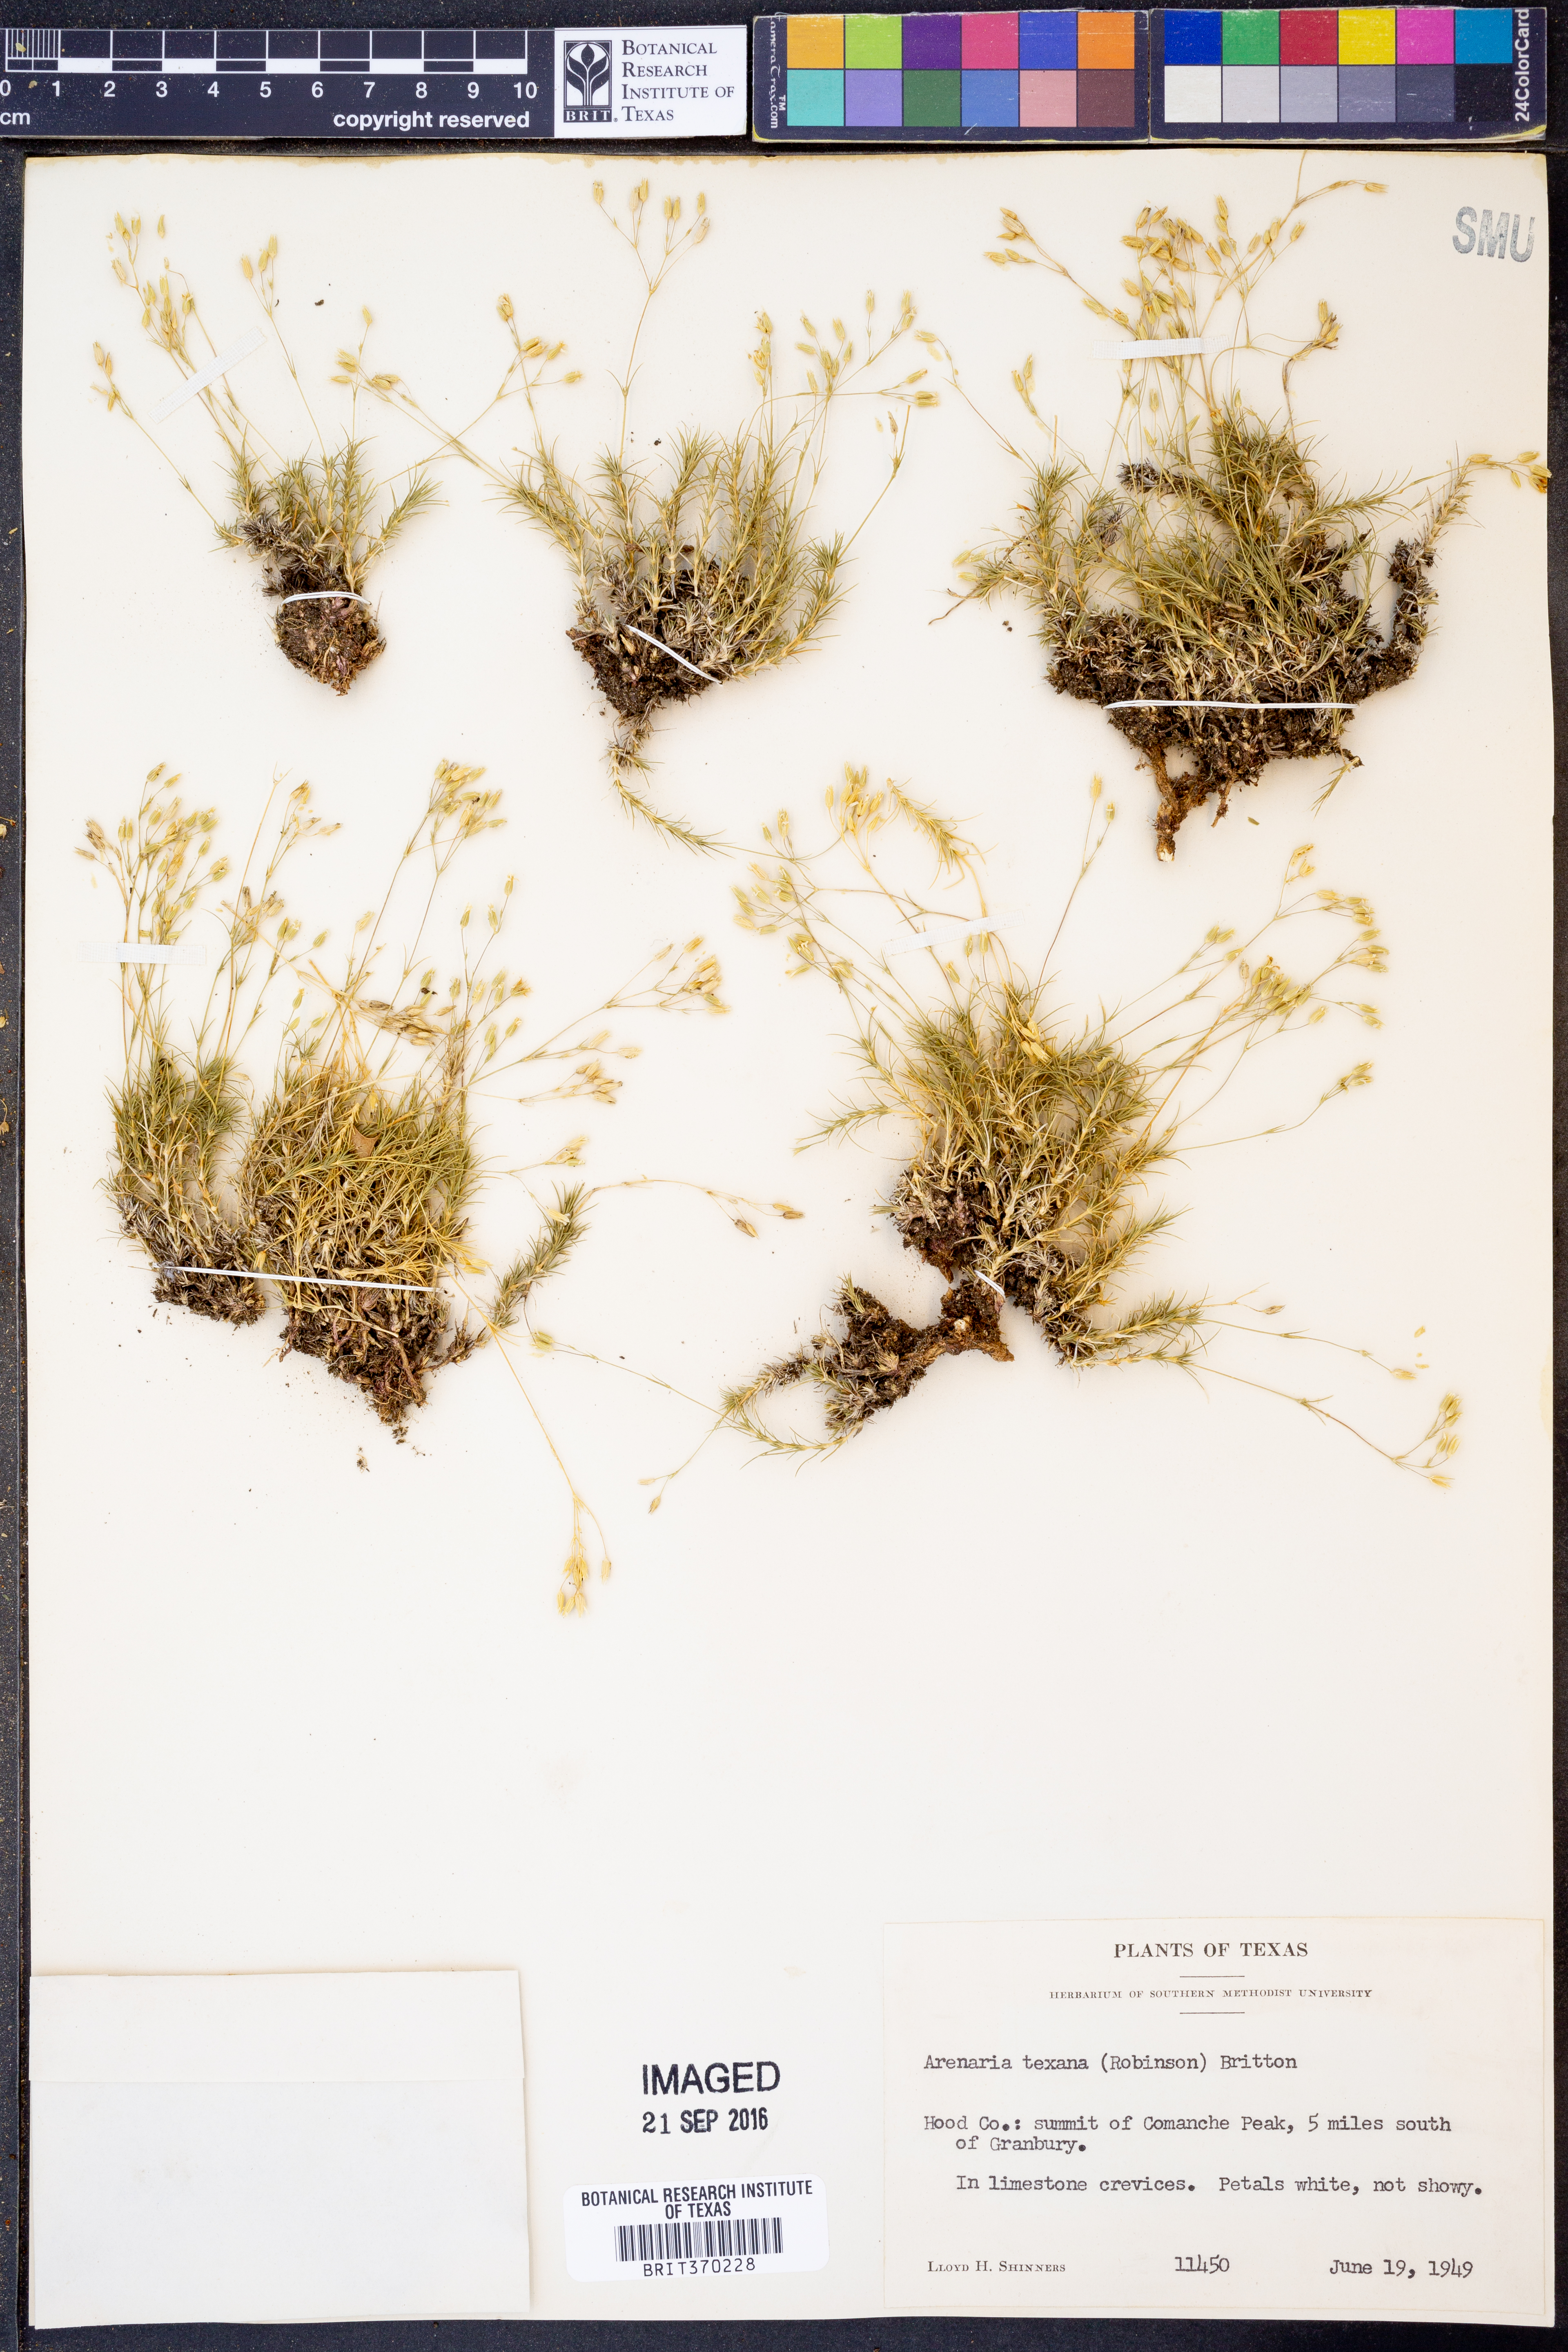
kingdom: Plantae
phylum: Tracheophyta
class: Magnoliopsida
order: Caryophyllales
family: Caryophyllaceae
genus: Sabulina
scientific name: Sabulina texana
